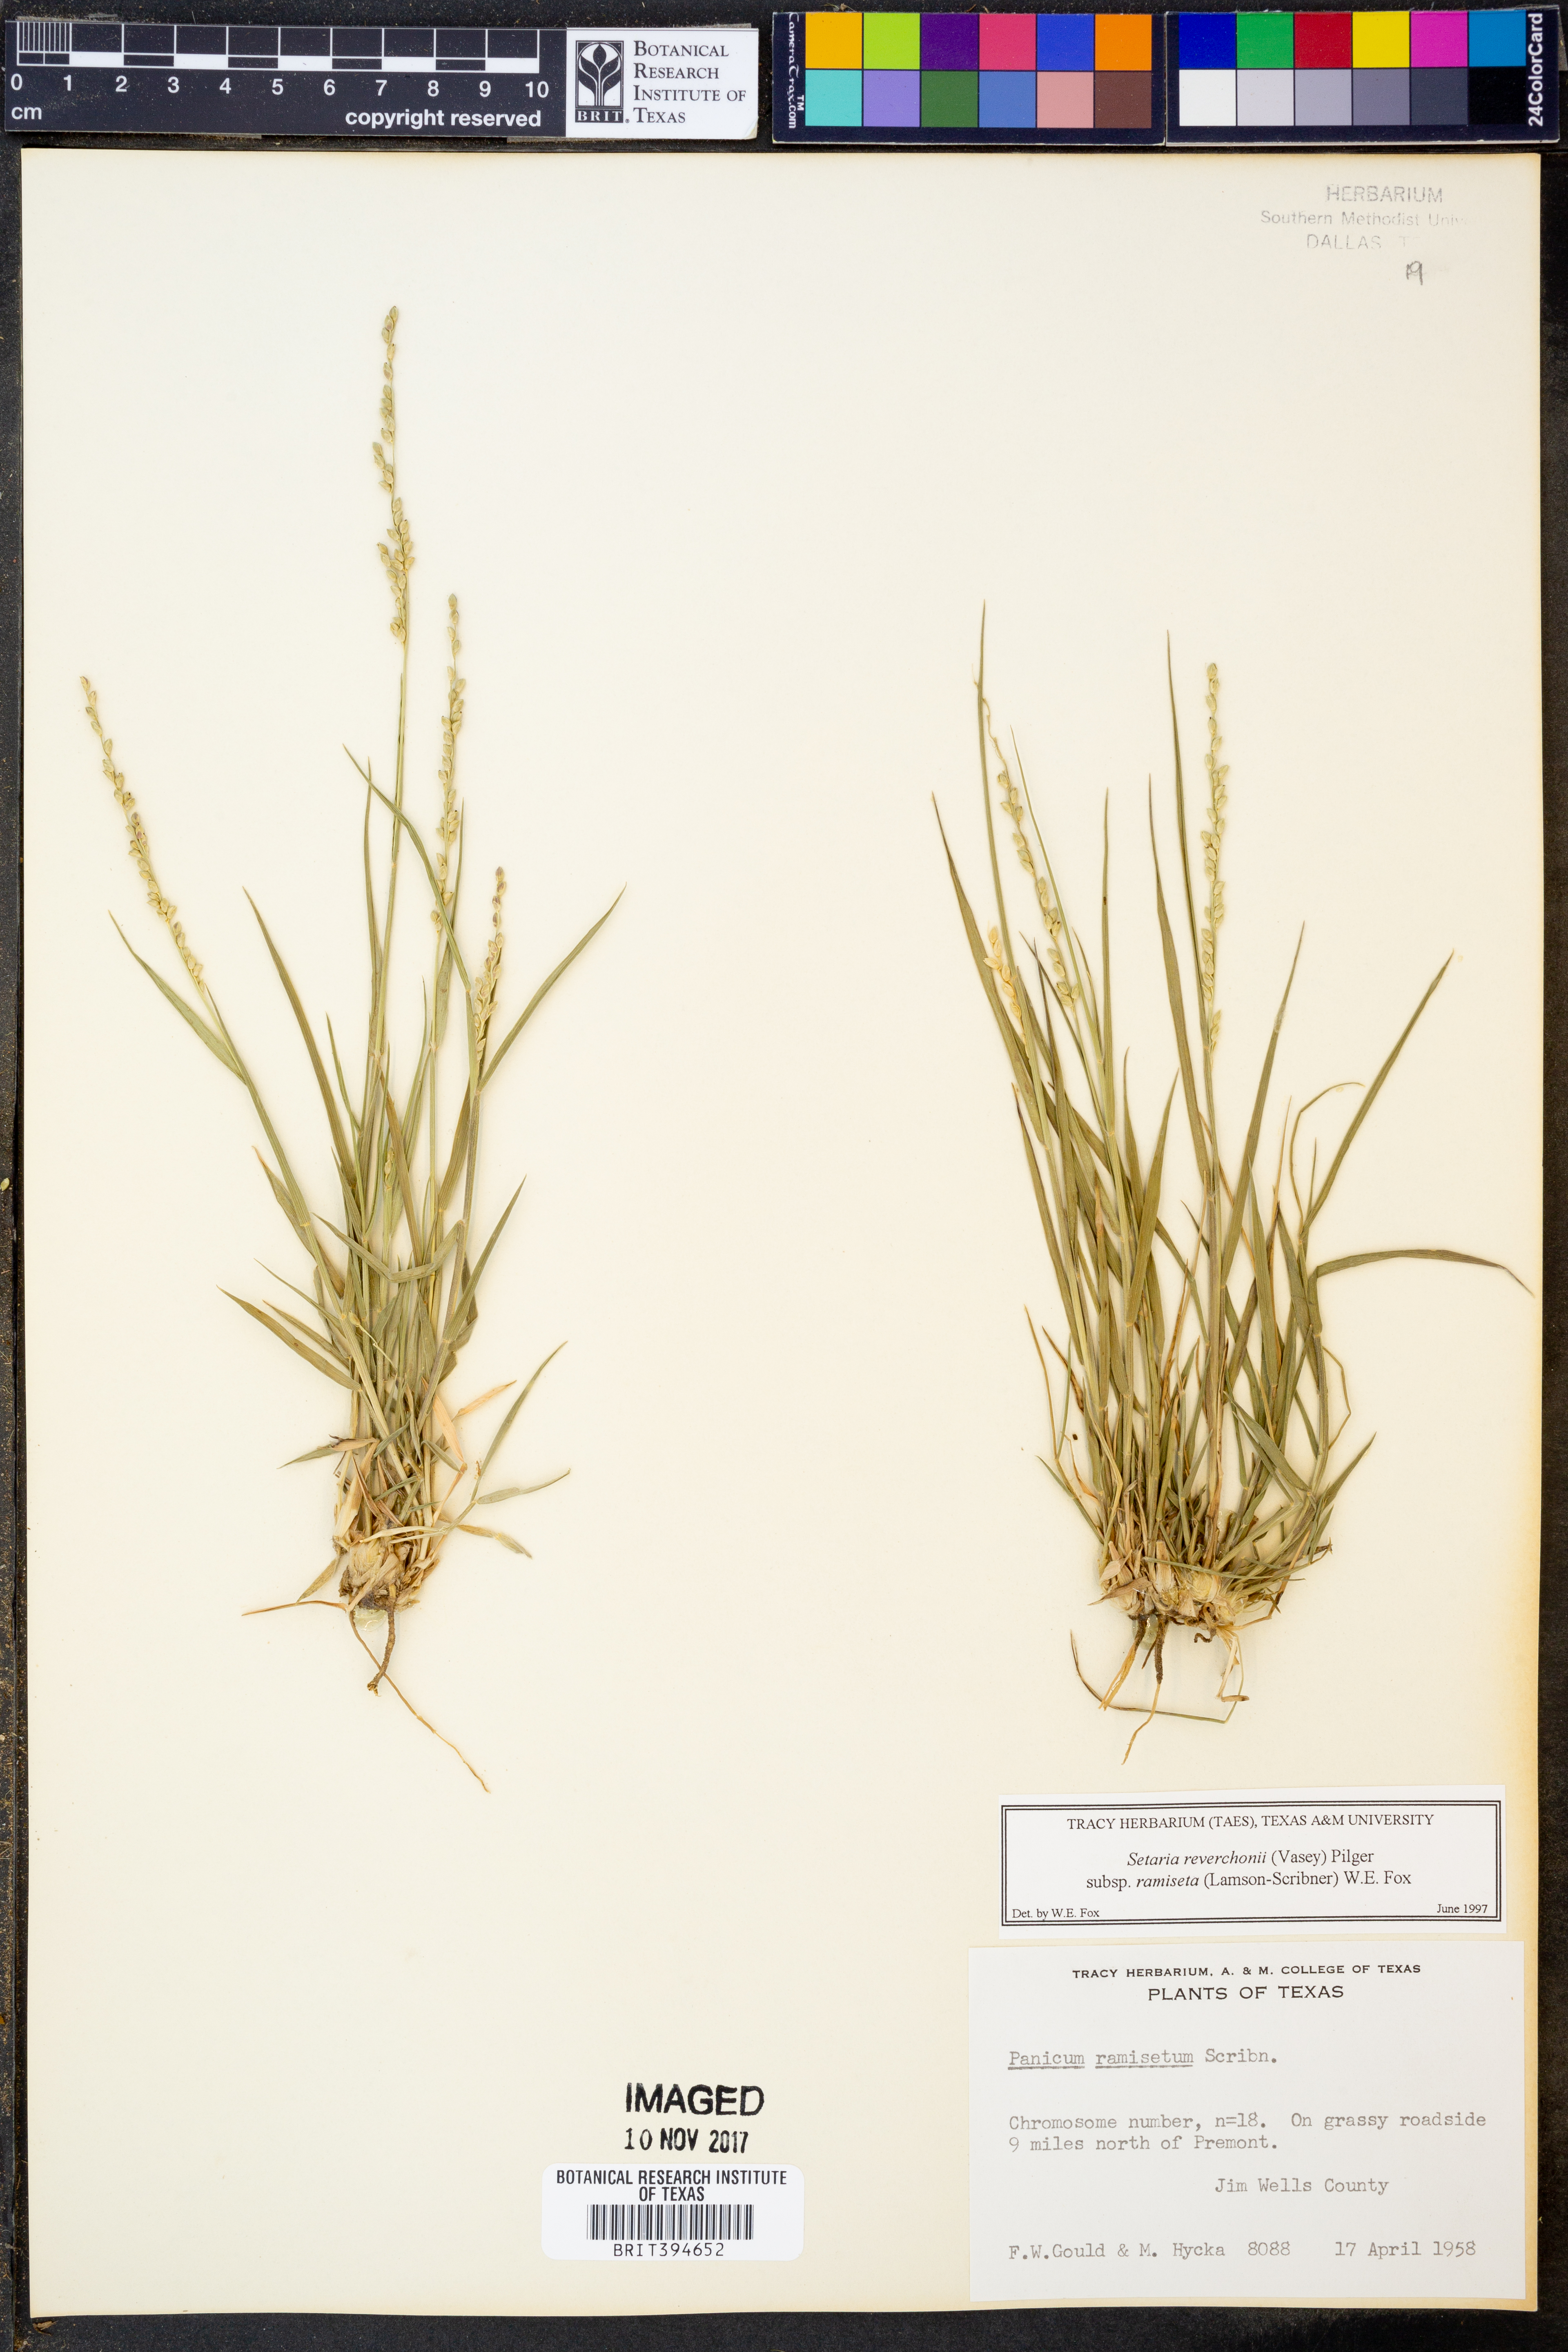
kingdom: Plantae
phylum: Tracheophyta
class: Liliopsida
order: Poales
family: Poaceae
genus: Setaria
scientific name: Setaria reverchonii
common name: Reverchon's bristle grass
